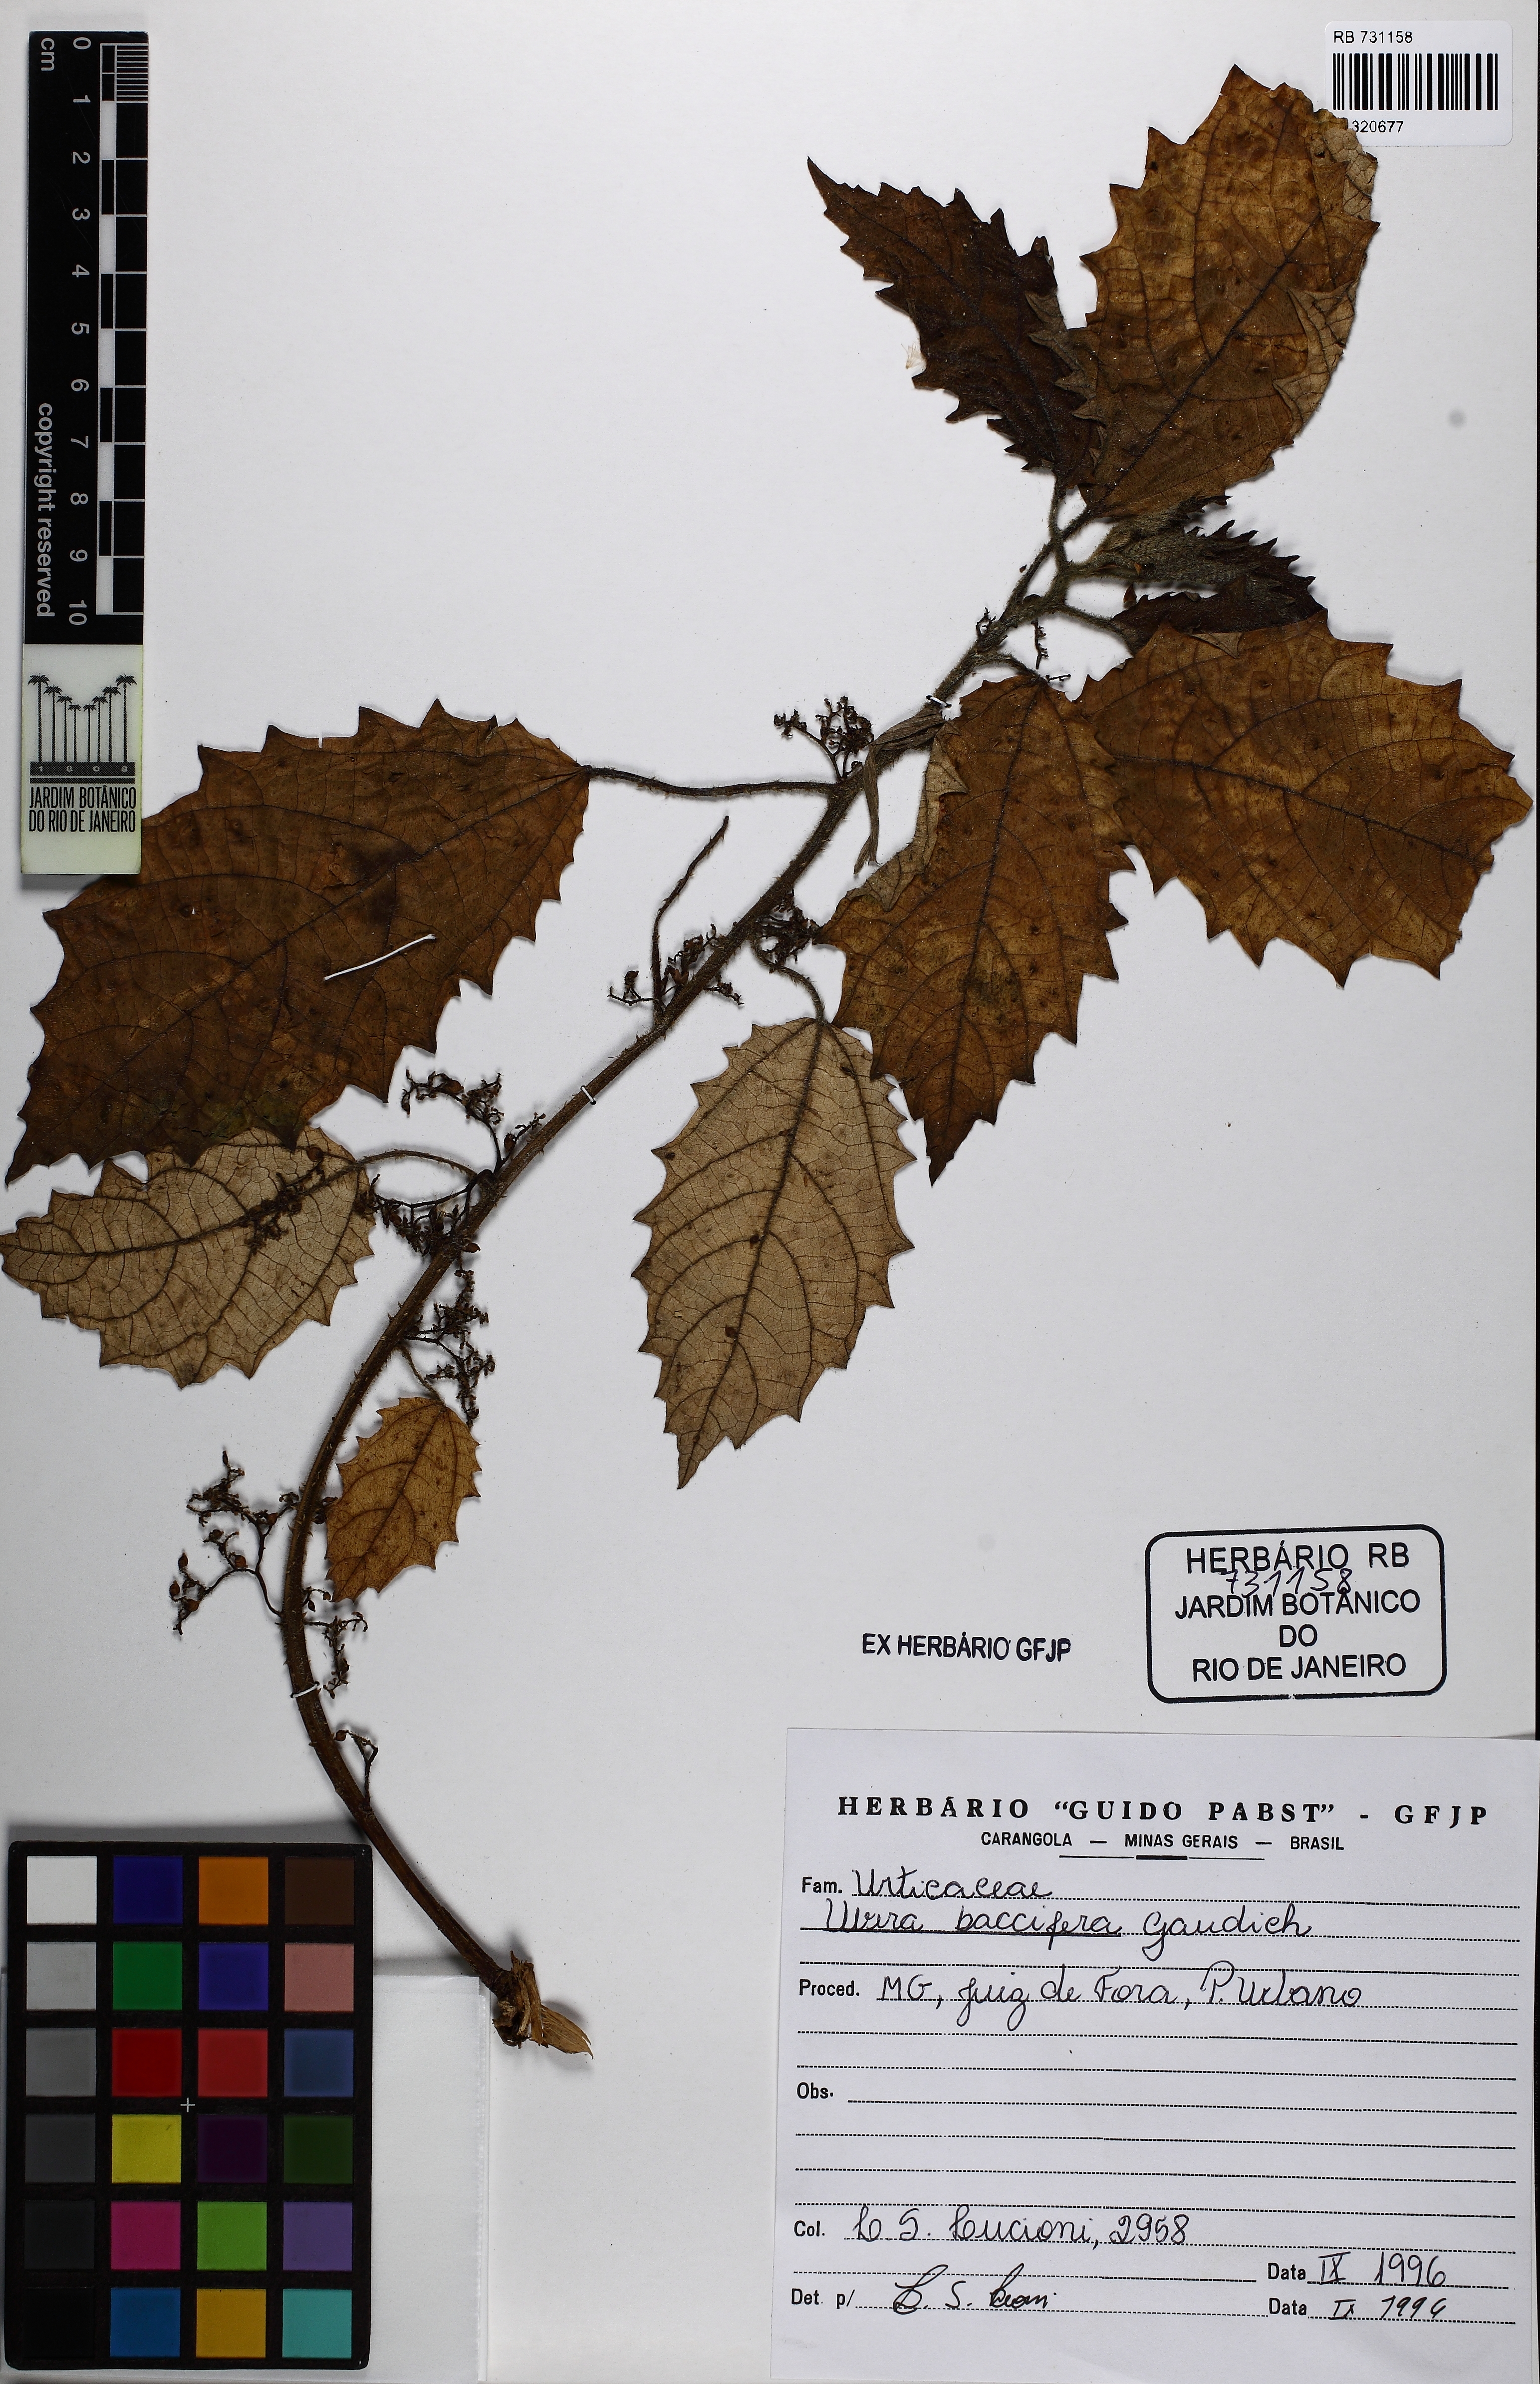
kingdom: Plantae
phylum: Tracheophyta
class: Magnoliopsida
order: Rosales
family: Urticaceae
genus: Urera
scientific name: Urera baccifera
